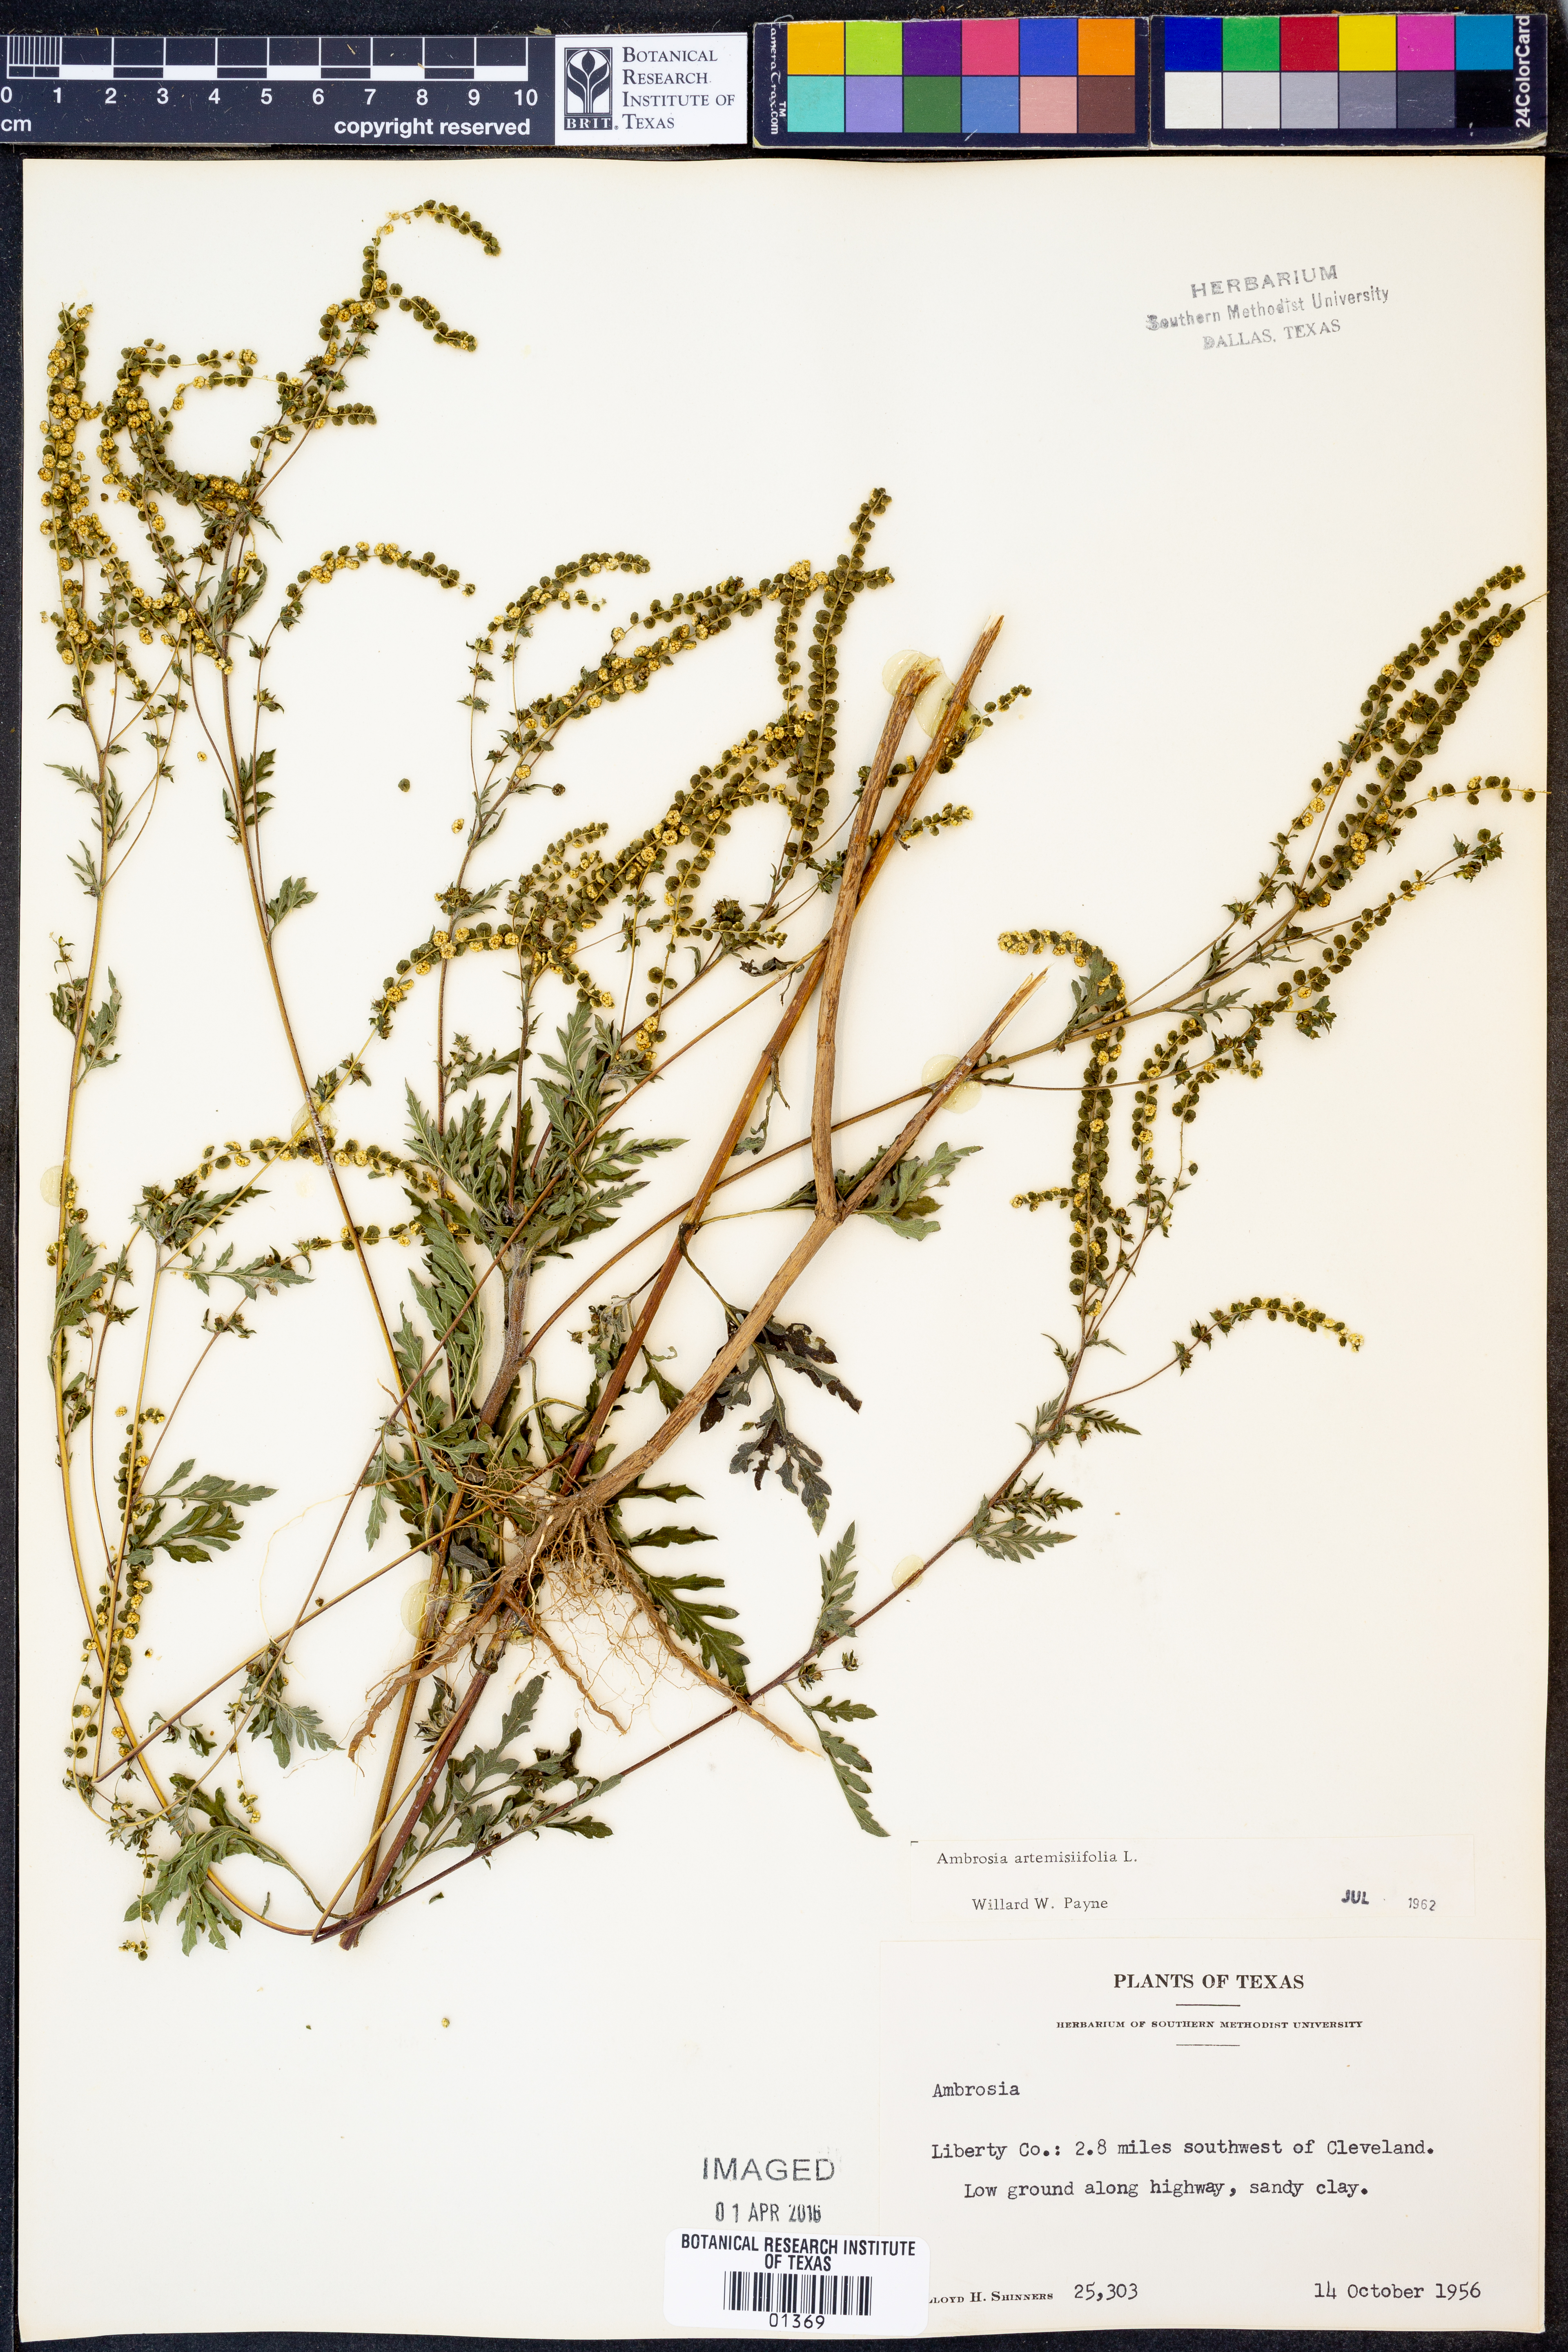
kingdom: Plantae
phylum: Tracheophyta
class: Magnoliopsida
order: Asterales
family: Asteraceae
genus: Ambrosia
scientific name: Ambrosia artemisiifolia
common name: Annual ragweed
